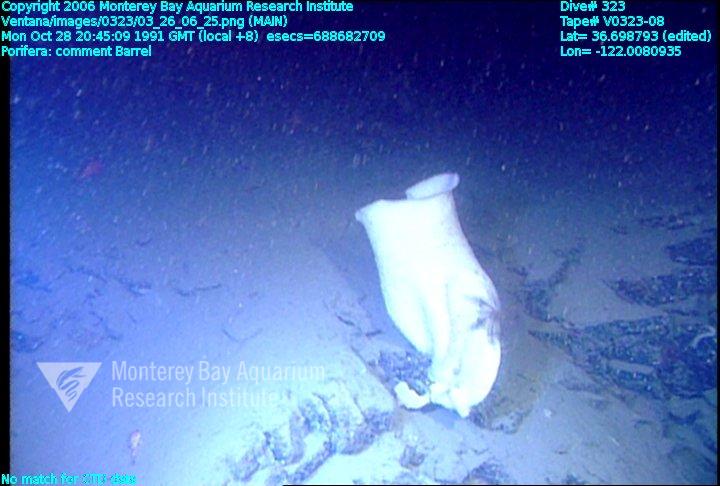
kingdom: Animalia
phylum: Porifera
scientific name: Porifera
